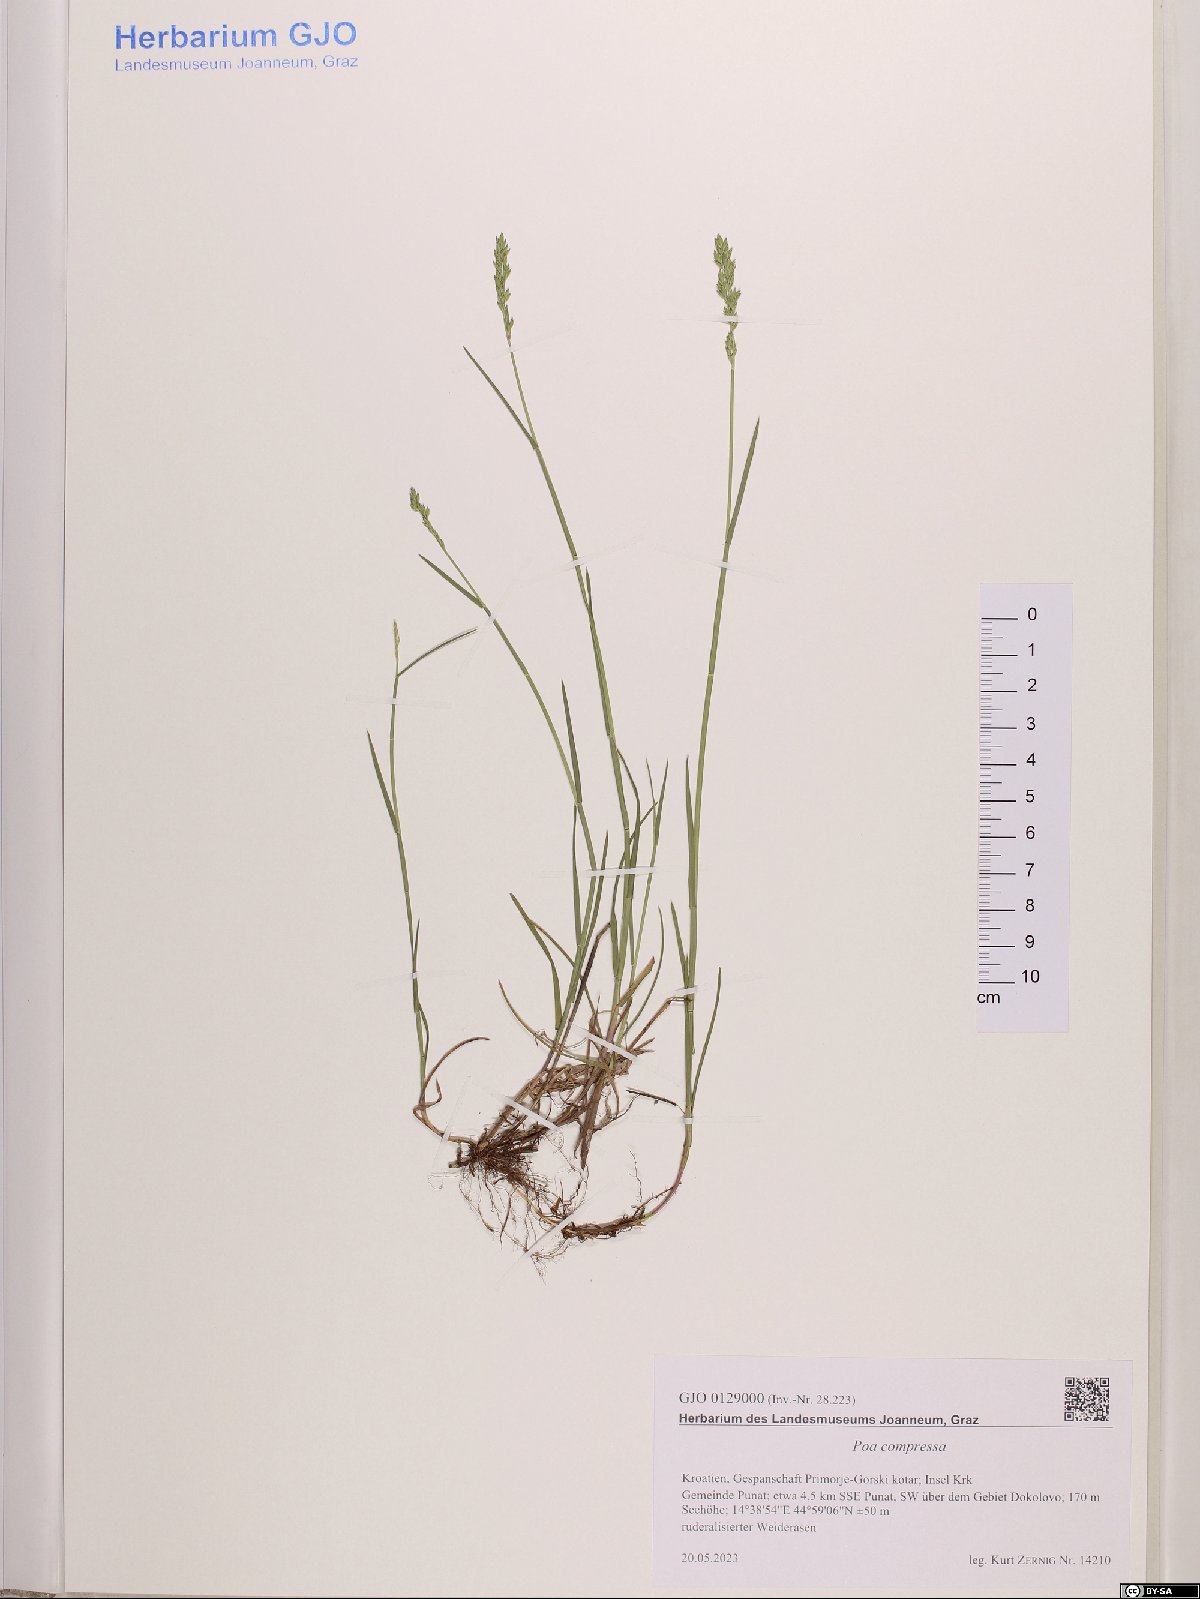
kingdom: Plantae
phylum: Tracheophyta
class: Liliopsida
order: Poales
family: Poaceae
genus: Poa
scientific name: Poa compressa
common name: Canada bluegrass
